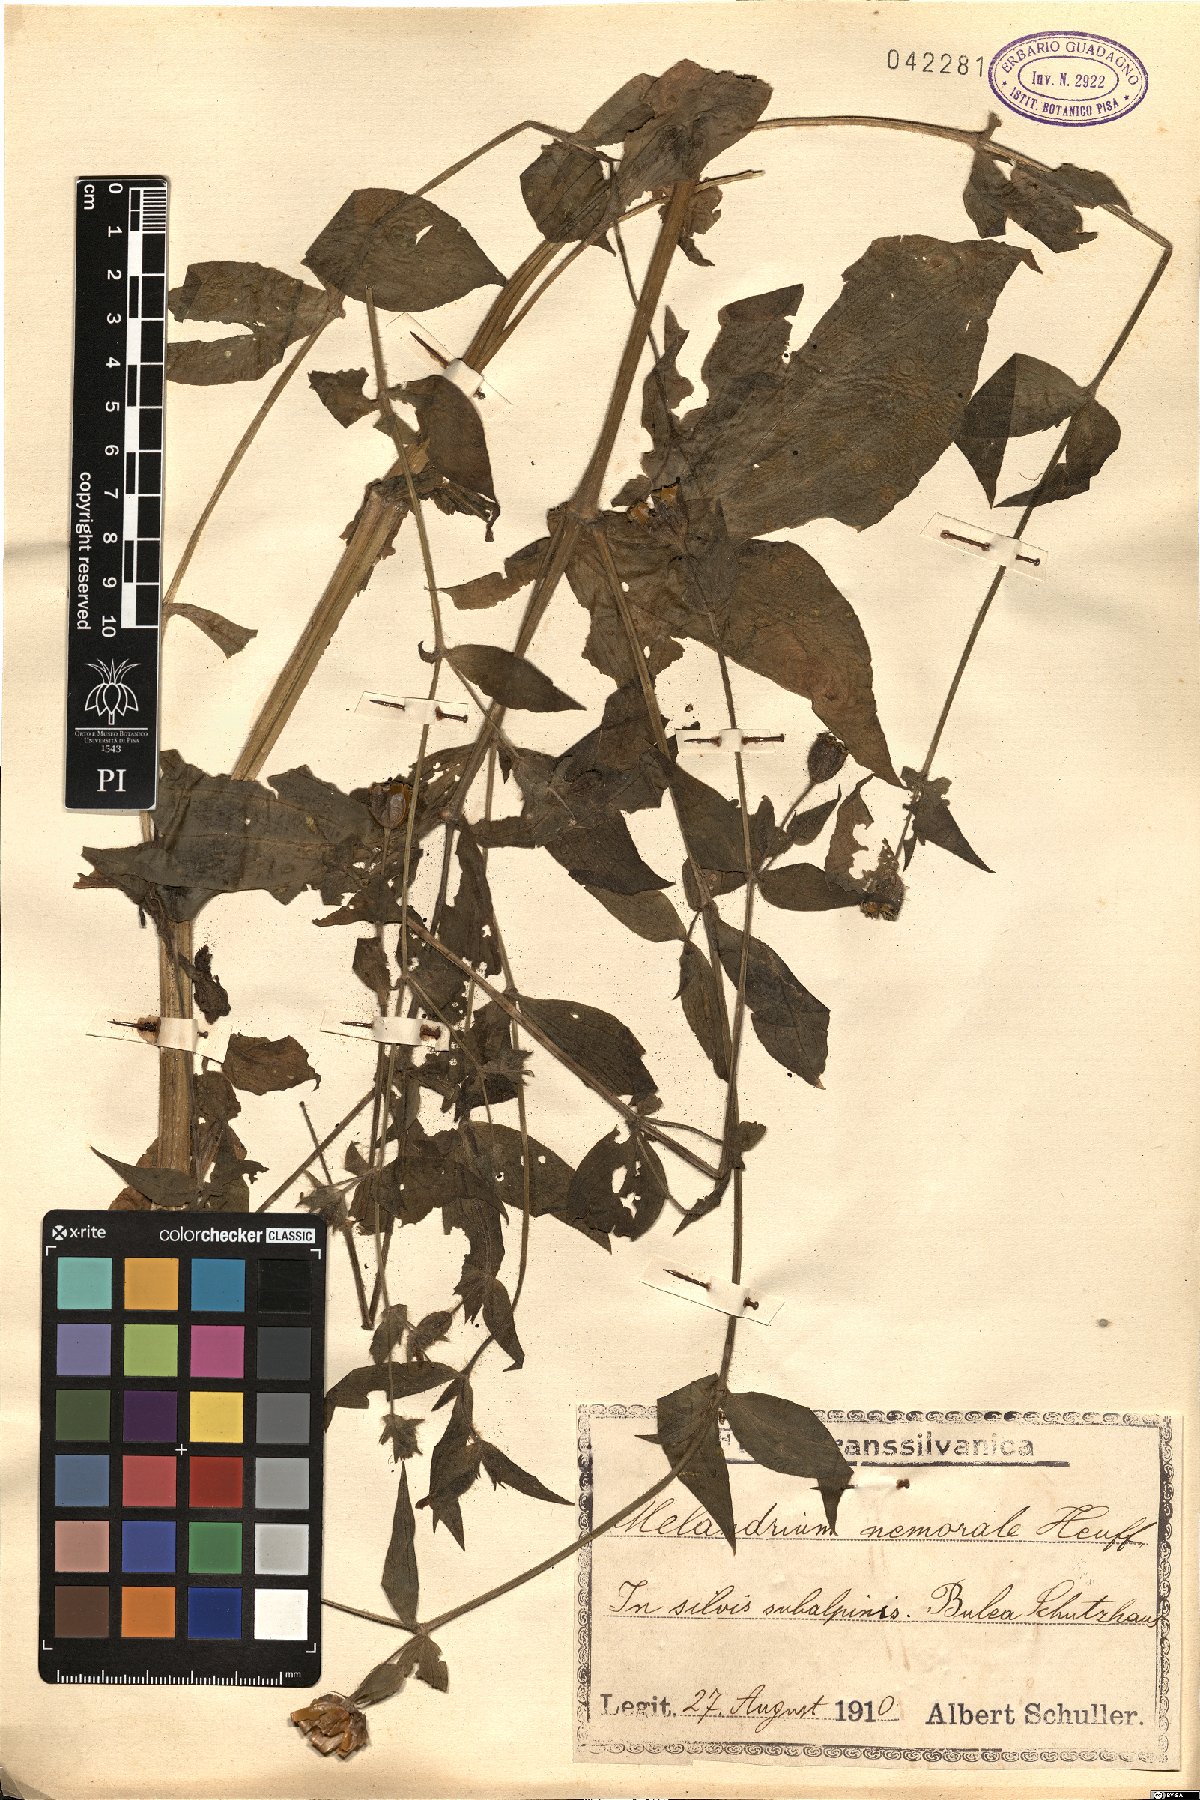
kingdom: Plantae
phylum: Tracheophyta
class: Magnoliopsida
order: Caryophyllales
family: Caryophyllaceae
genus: Silene
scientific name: Silene heuffelii
